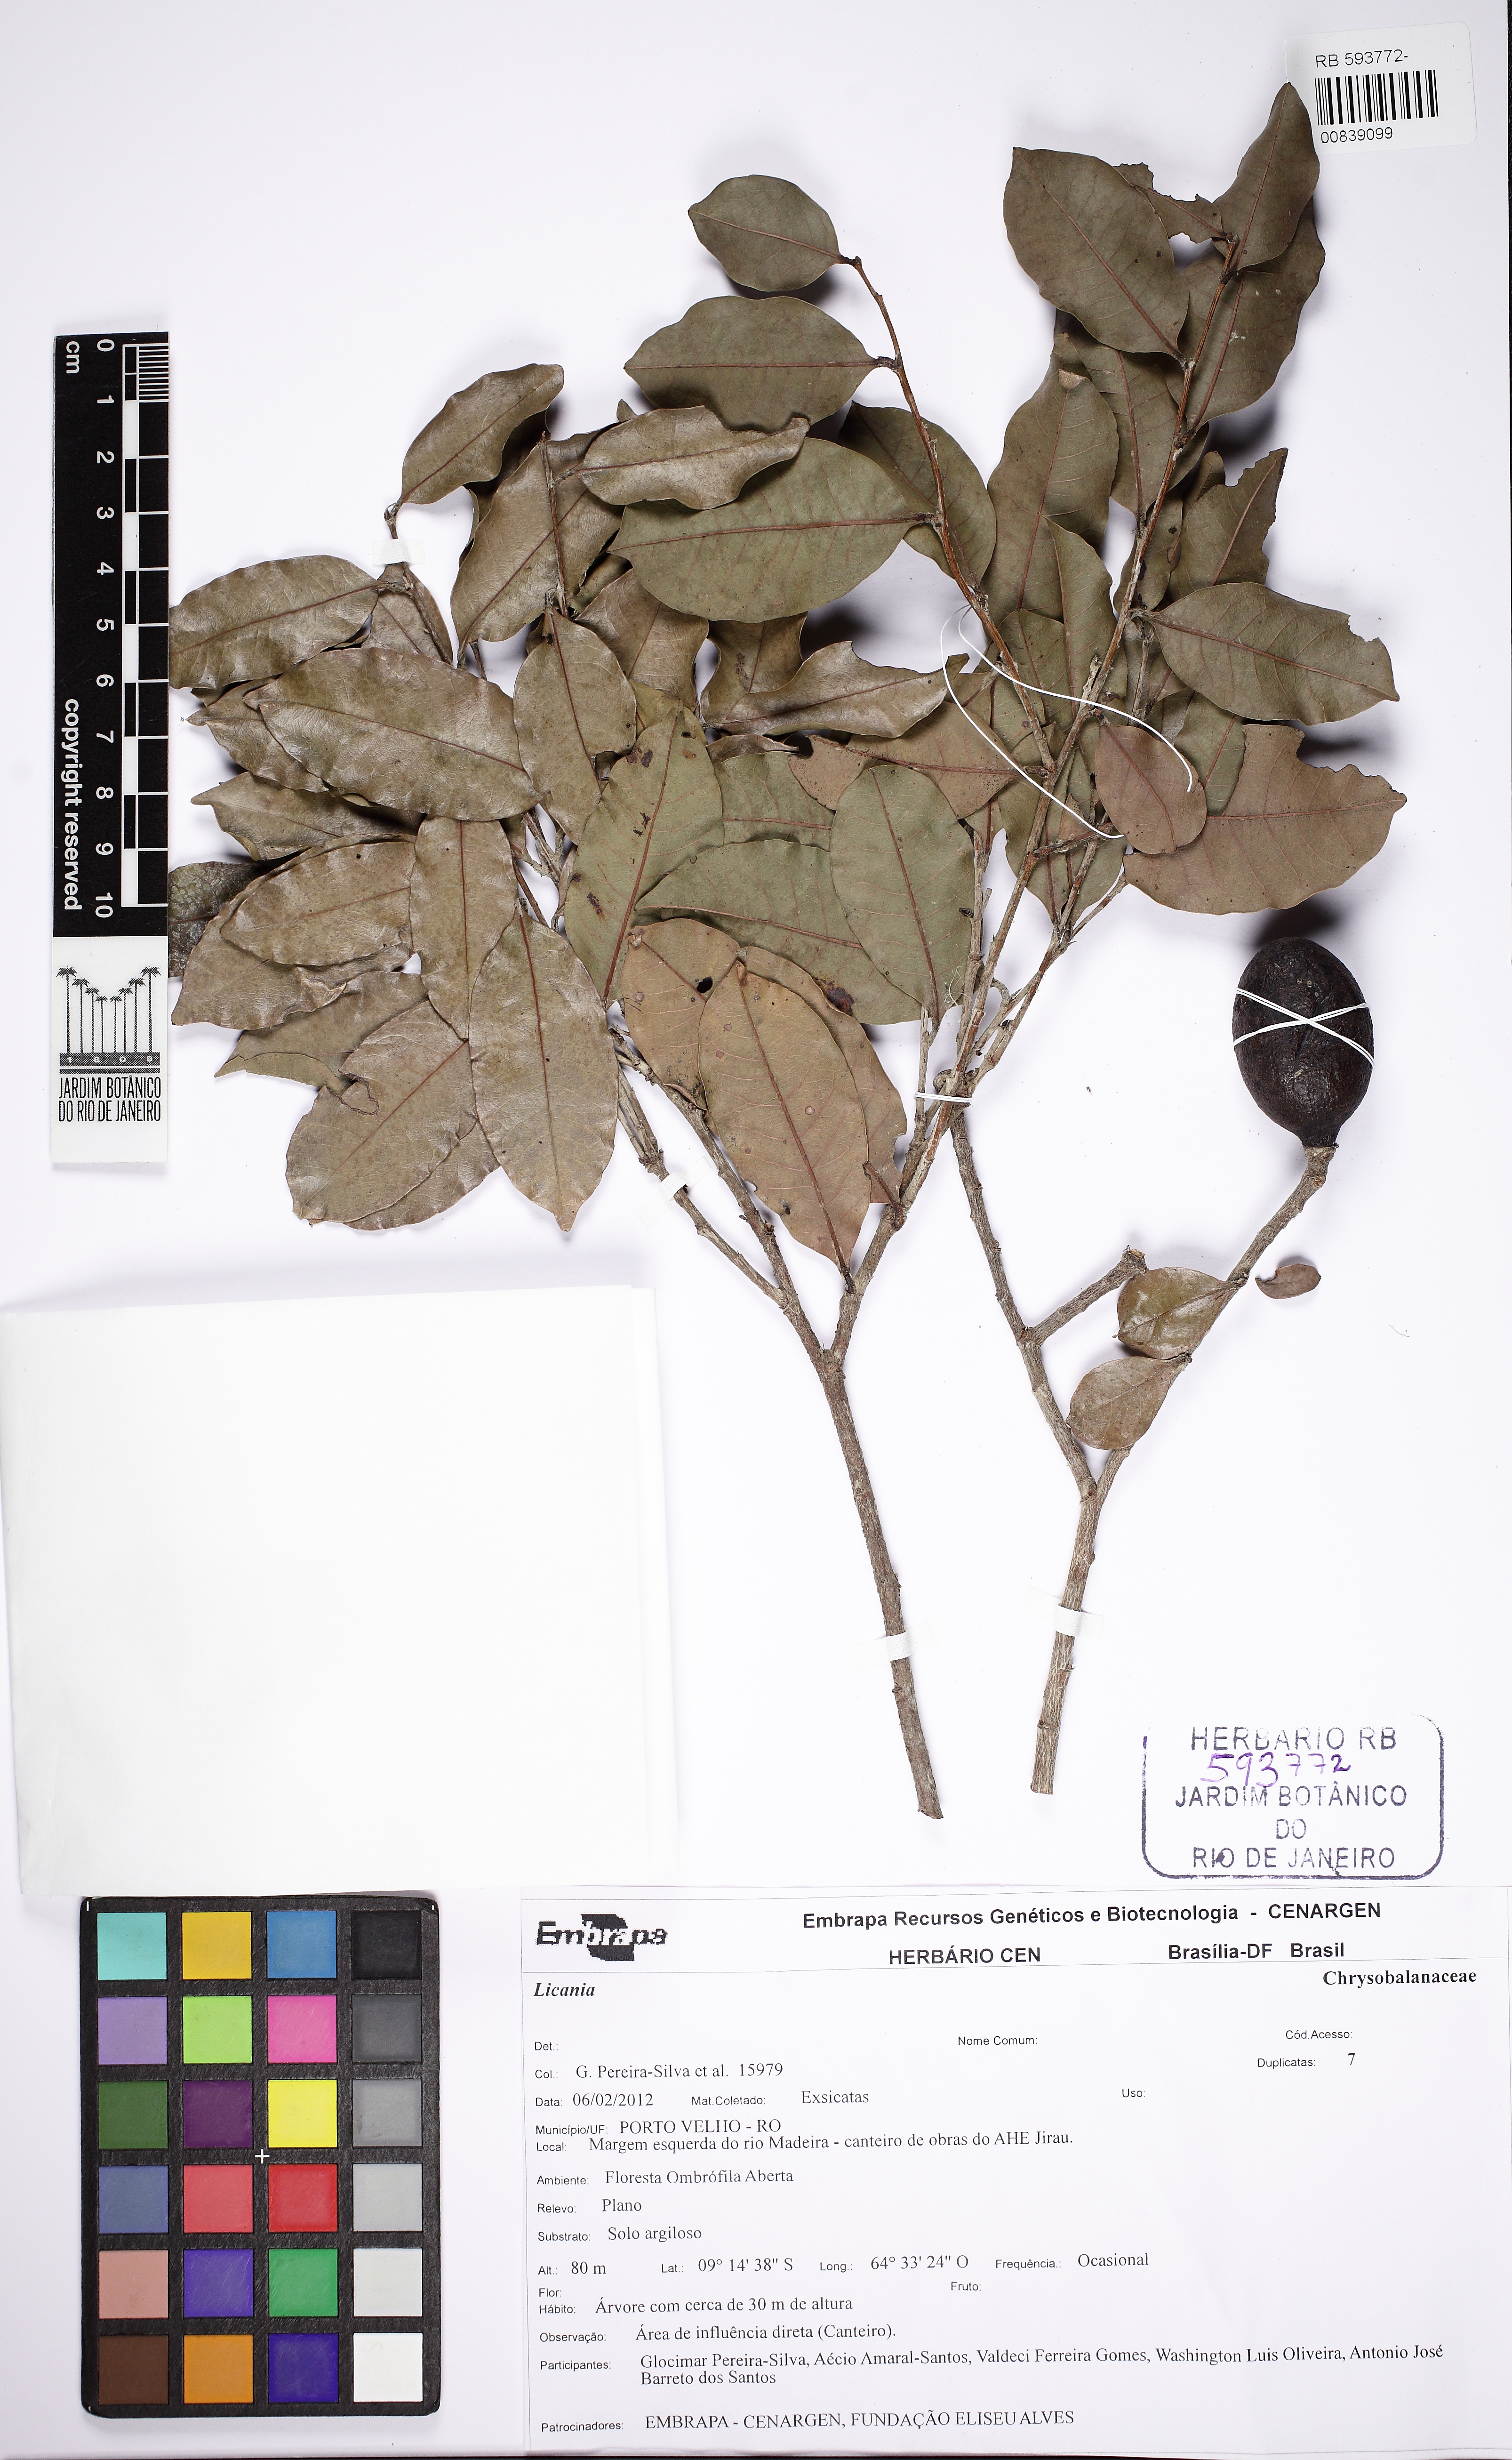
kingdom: Plantae
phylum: Tracheophyta
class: Magnoliopsida
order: Malpighiales
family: Chrysobalanaceae
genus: Moquilea
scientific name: Moquilea egleri
